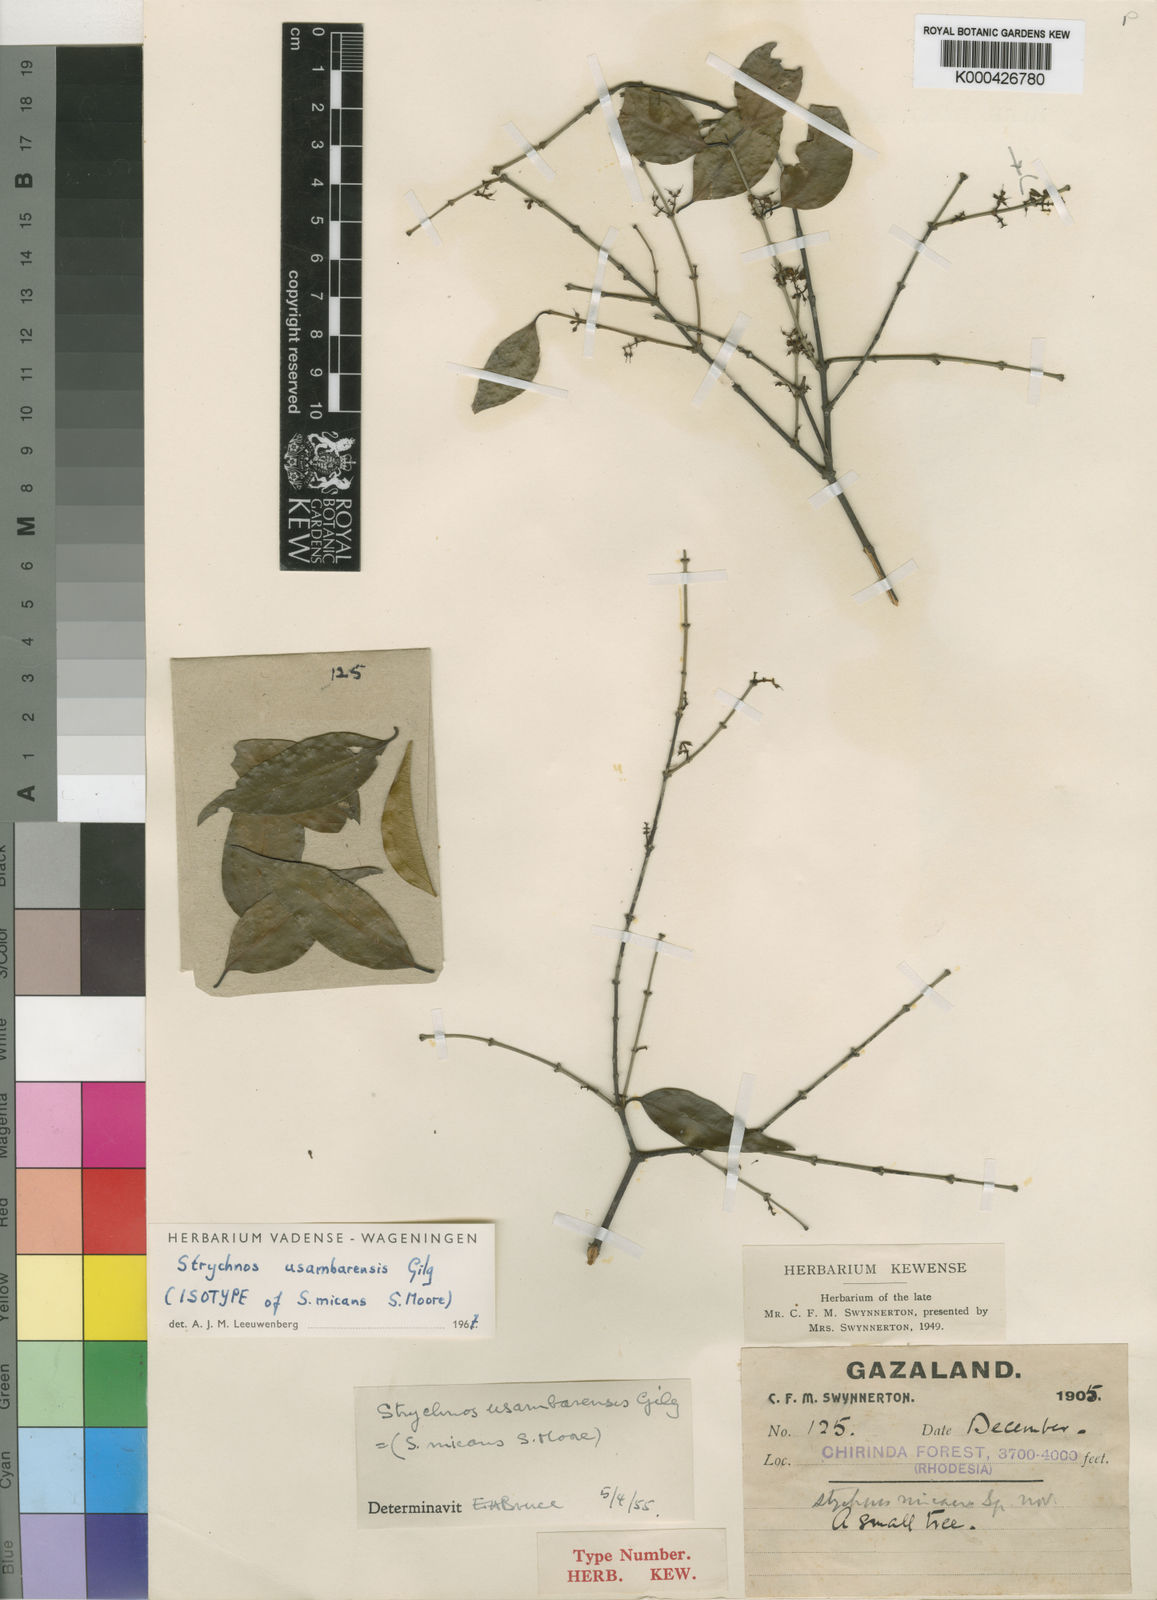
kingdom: Plantae
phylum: Tracheophyta
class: Magnoliopsida
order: Gentianales
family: Loganiaceae
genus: Strychnos
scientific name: Strychnos
